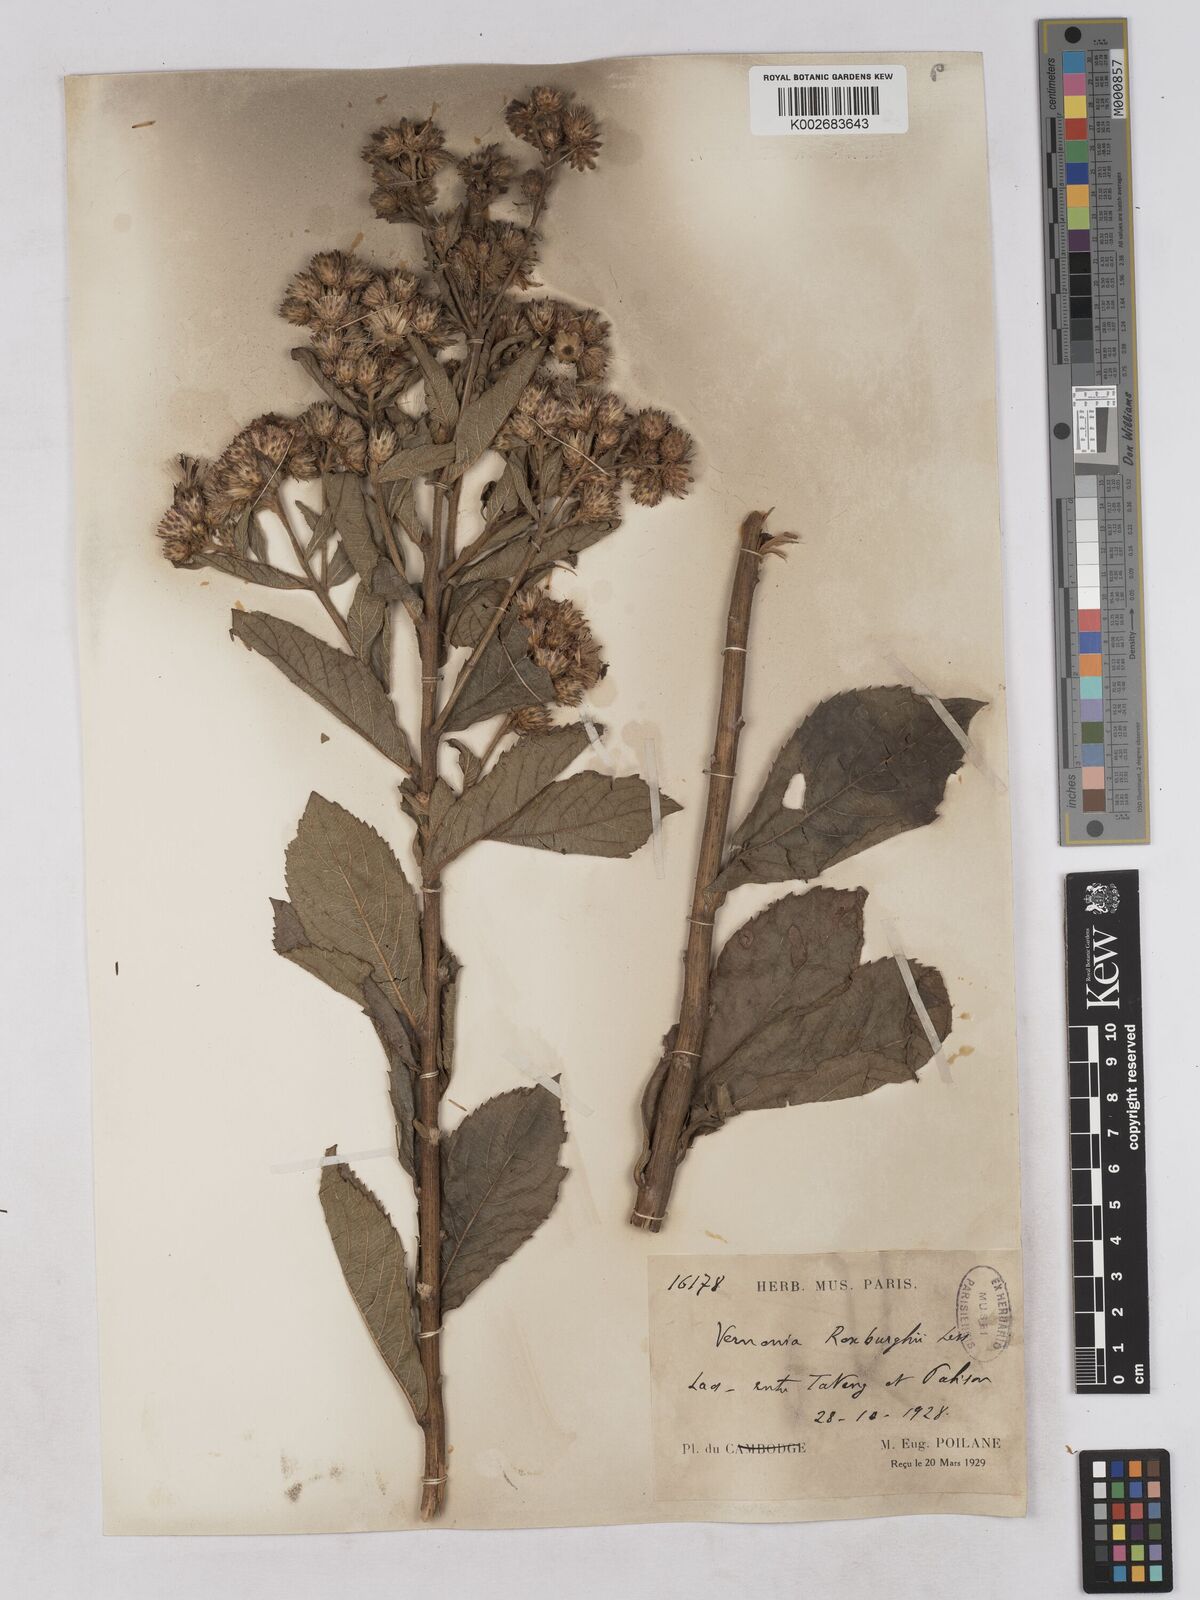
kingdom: Plantae
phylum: Tracheophyta
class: Magnoliopsida
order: Asterales
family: Asteraceae
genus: Acilepis
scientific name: Acilepis aspera
